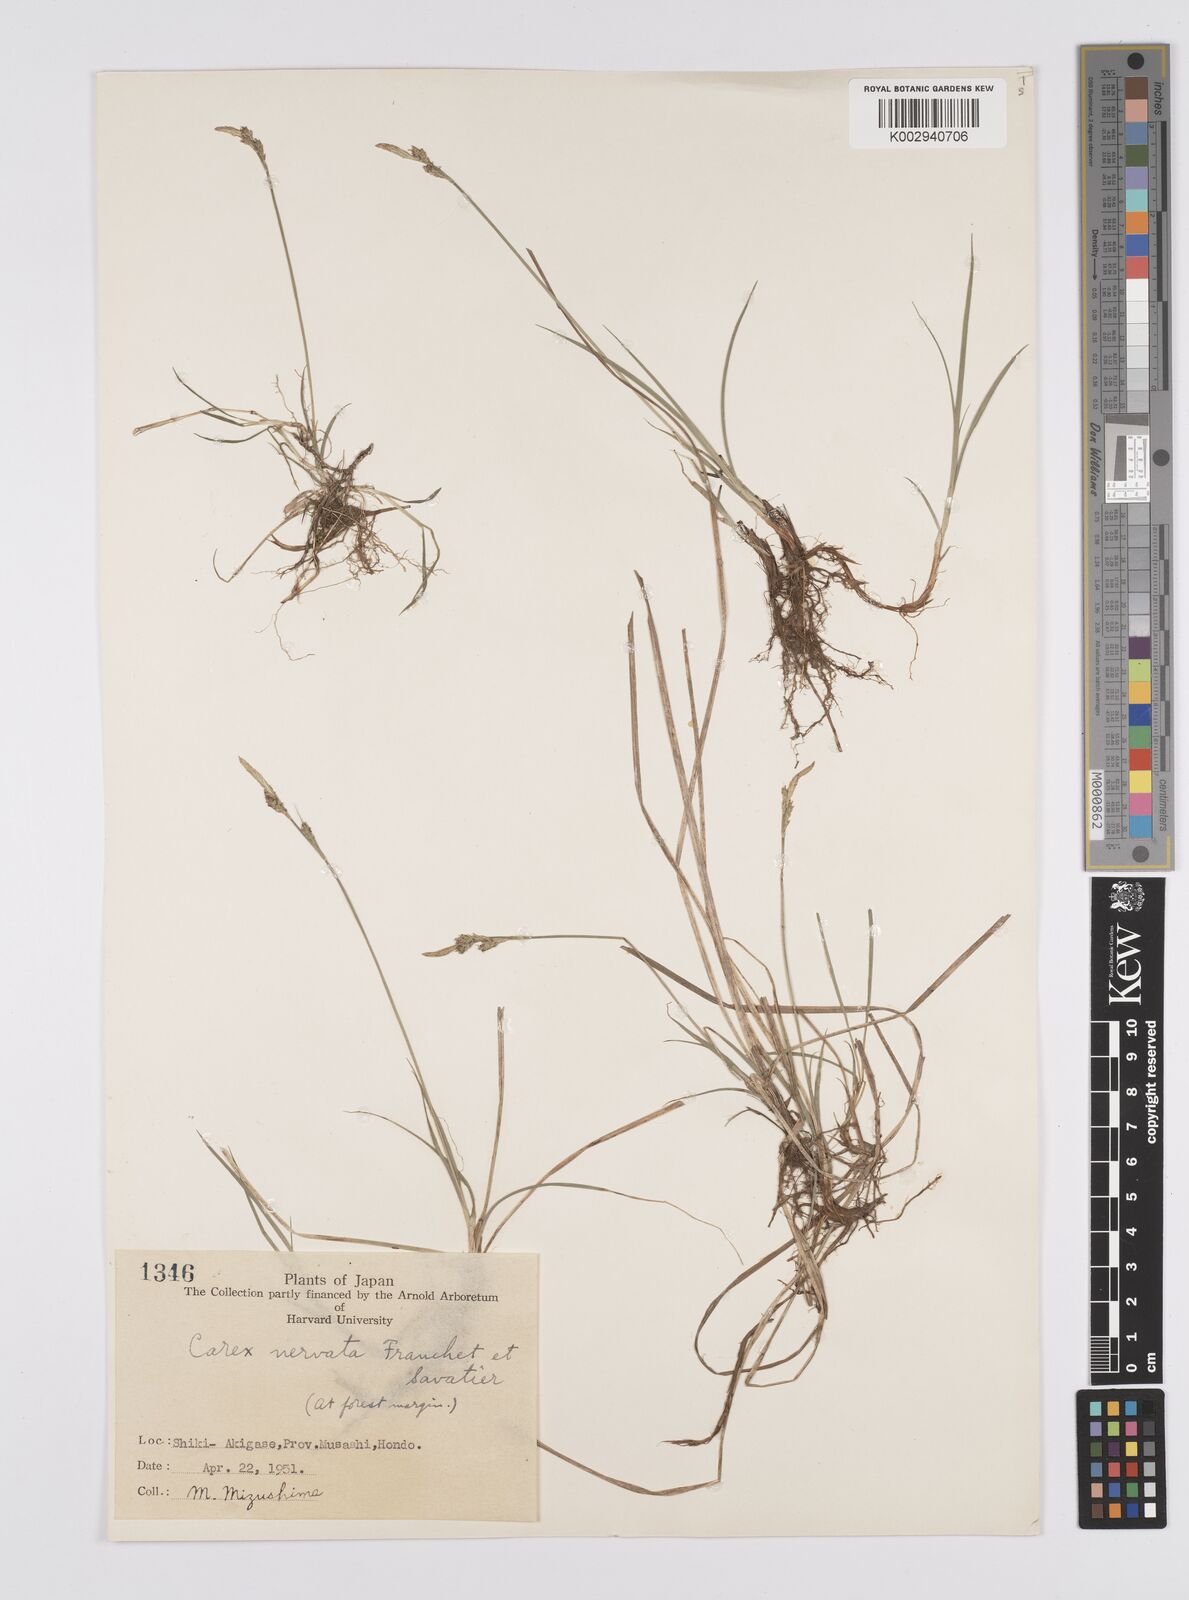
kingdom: Plantae
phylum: Tracheophyta
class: Liliopsida
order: Poales
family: Cyperaceae
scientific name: Cyperaceae
